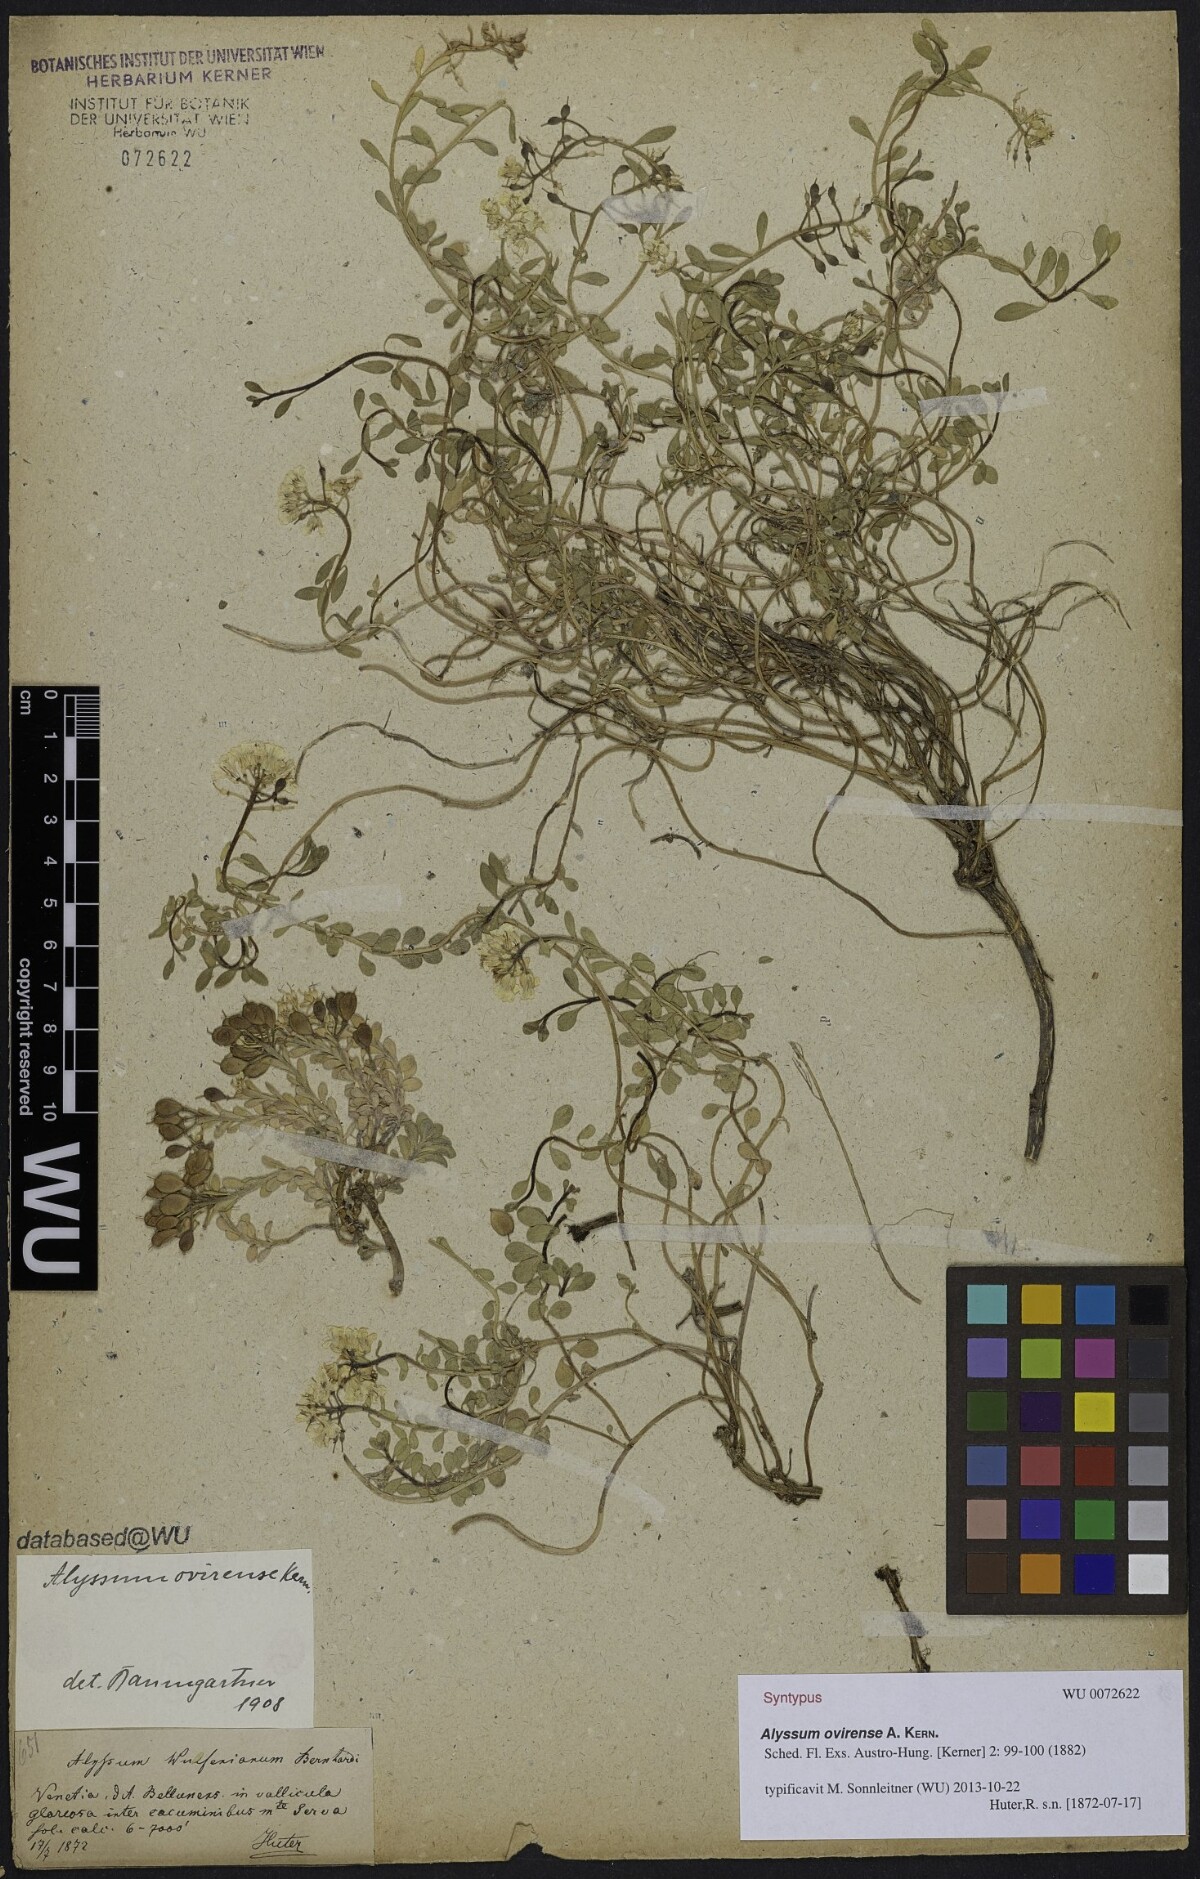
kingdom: Plantae
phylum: Tracheophyta
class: Magnoliopsida
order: Brassicales
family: Brassicaceae
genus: Alyssum
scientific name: Alyssum wulfenianum
